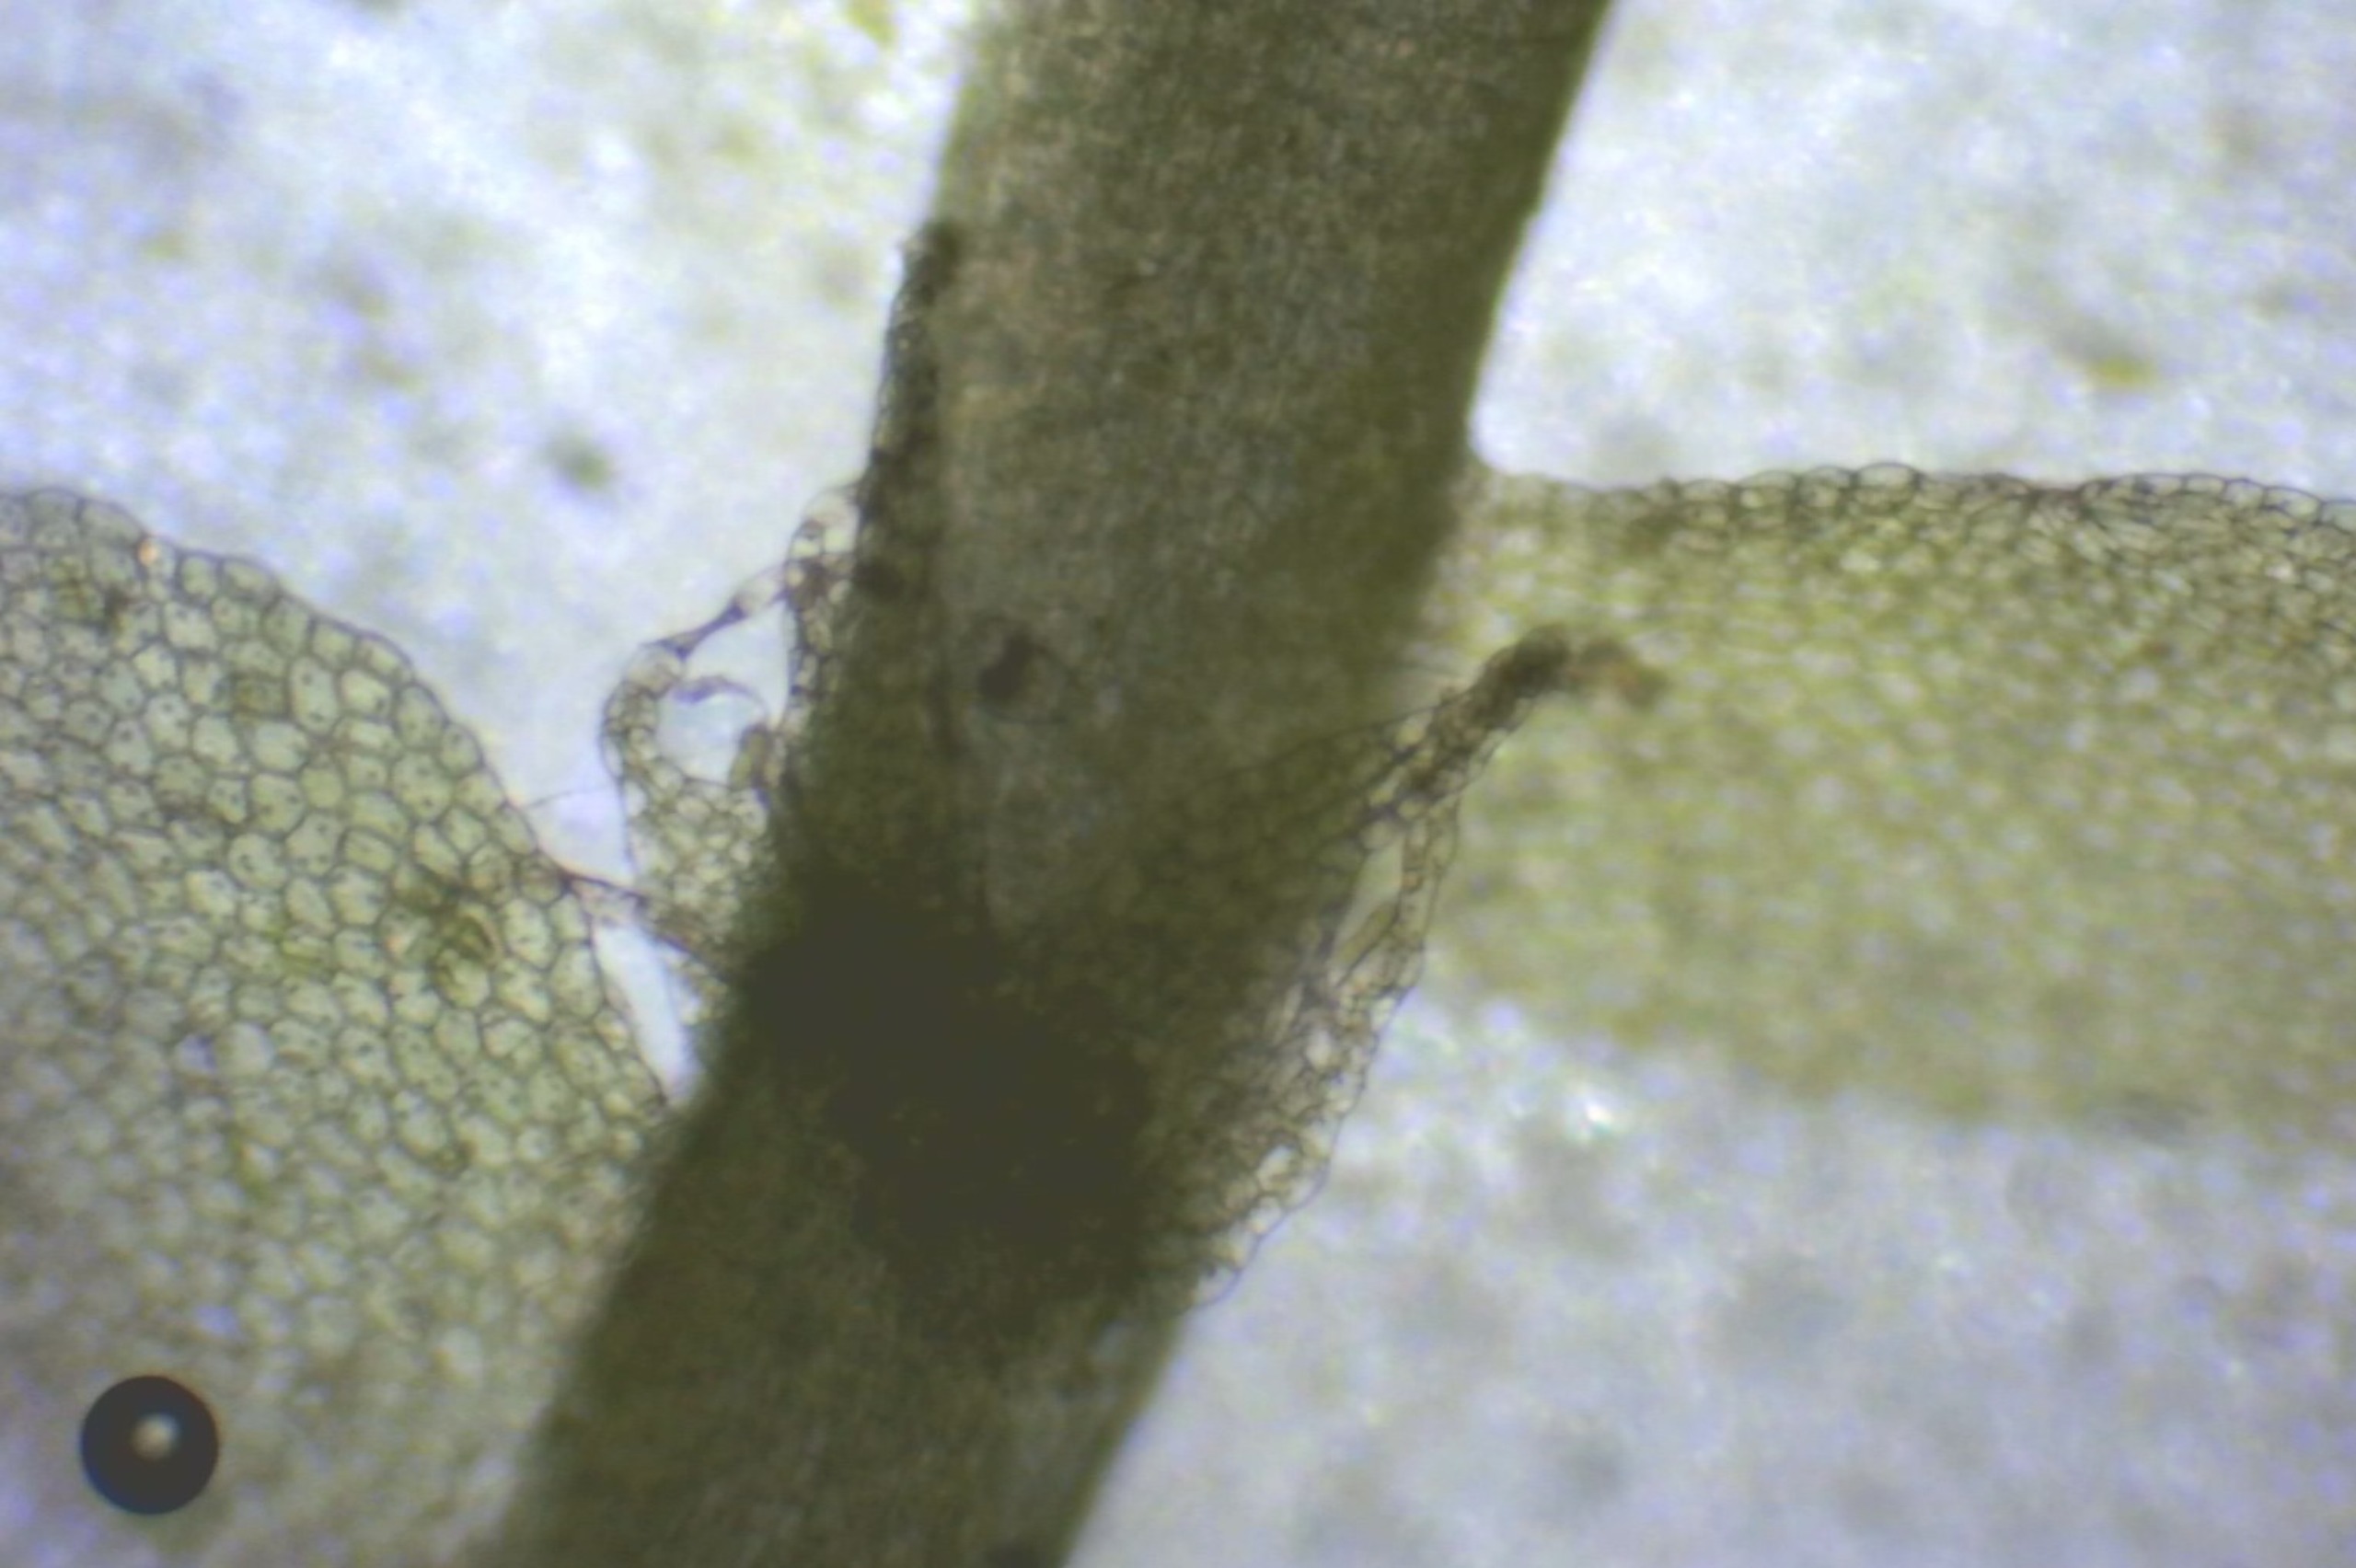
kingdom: Plantae
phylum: Marchantiophyta
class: Jungermanniopsida
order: Jungermanniales
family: Lophocoleaceae
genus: Lophocolea
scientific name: Lophocolea bidentata
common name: Sylspidset kamsvøb
